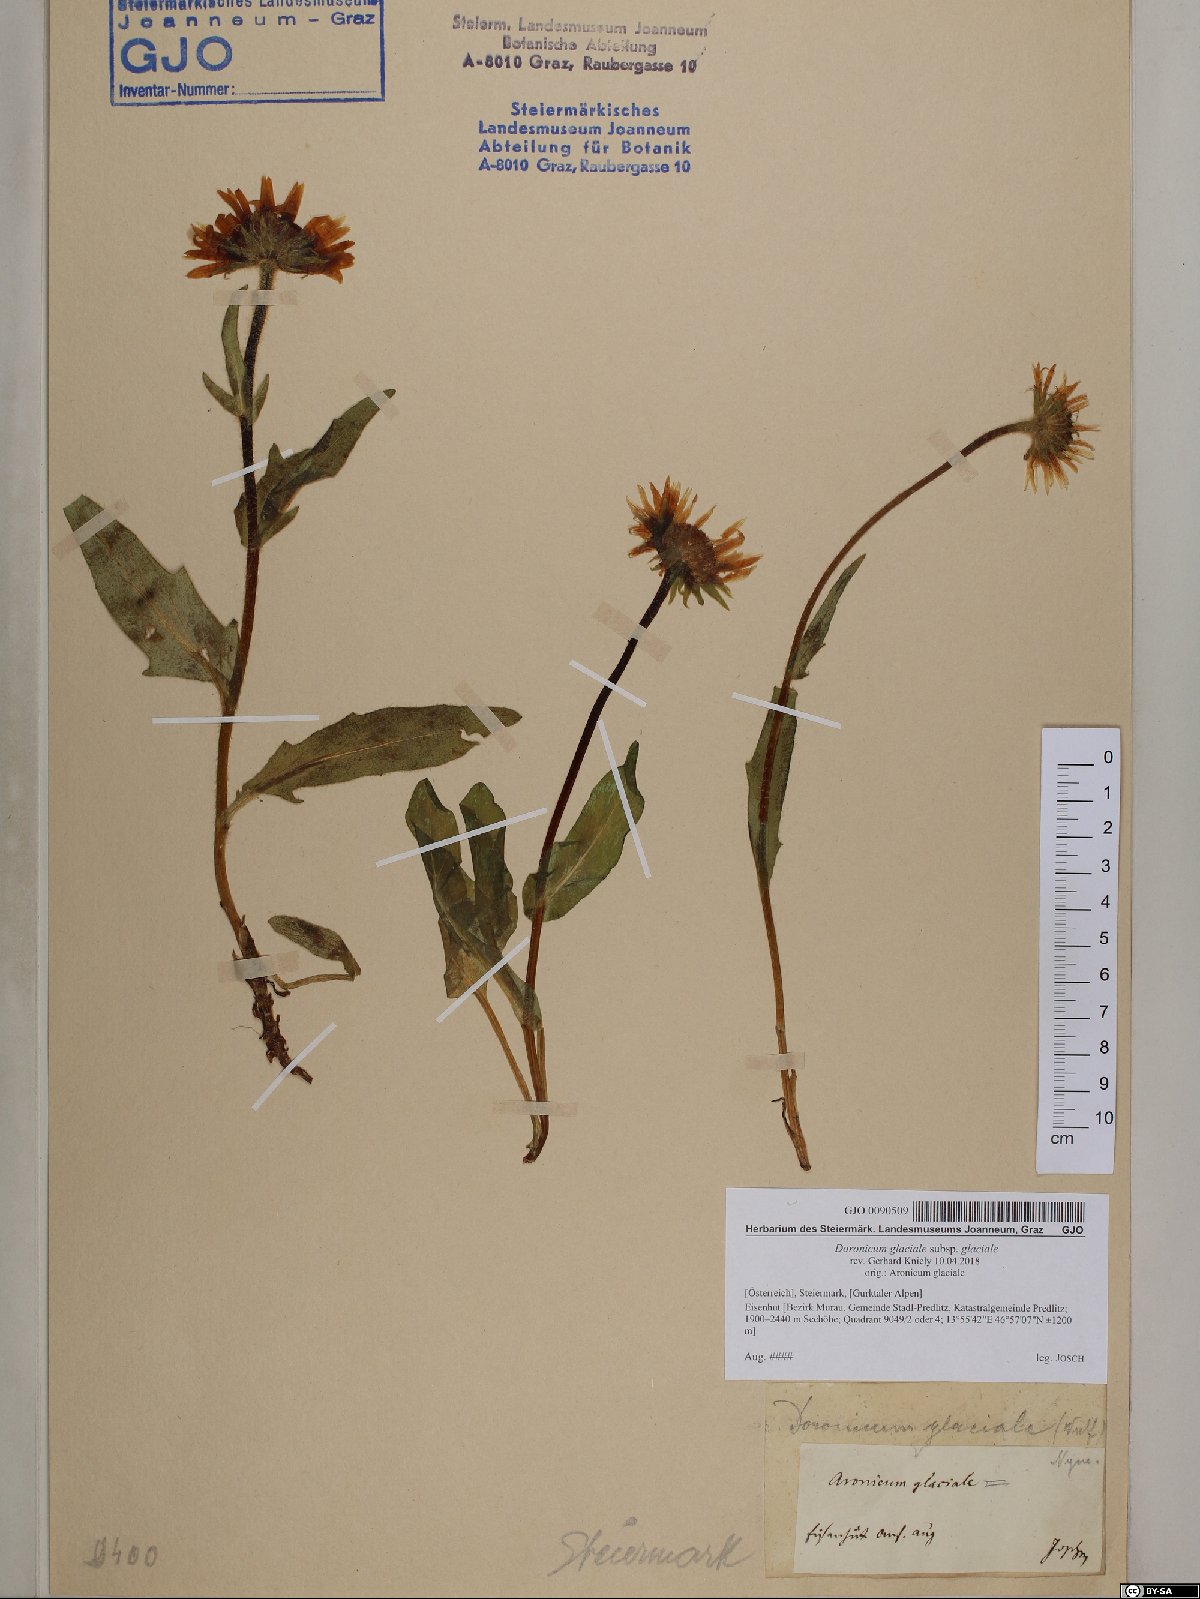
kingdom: Plantae
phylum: Tracheophyta
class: Magnoliopsida
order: Asterales
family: Asteraceae
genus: Doronicum
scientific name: Doronicum glaciale
